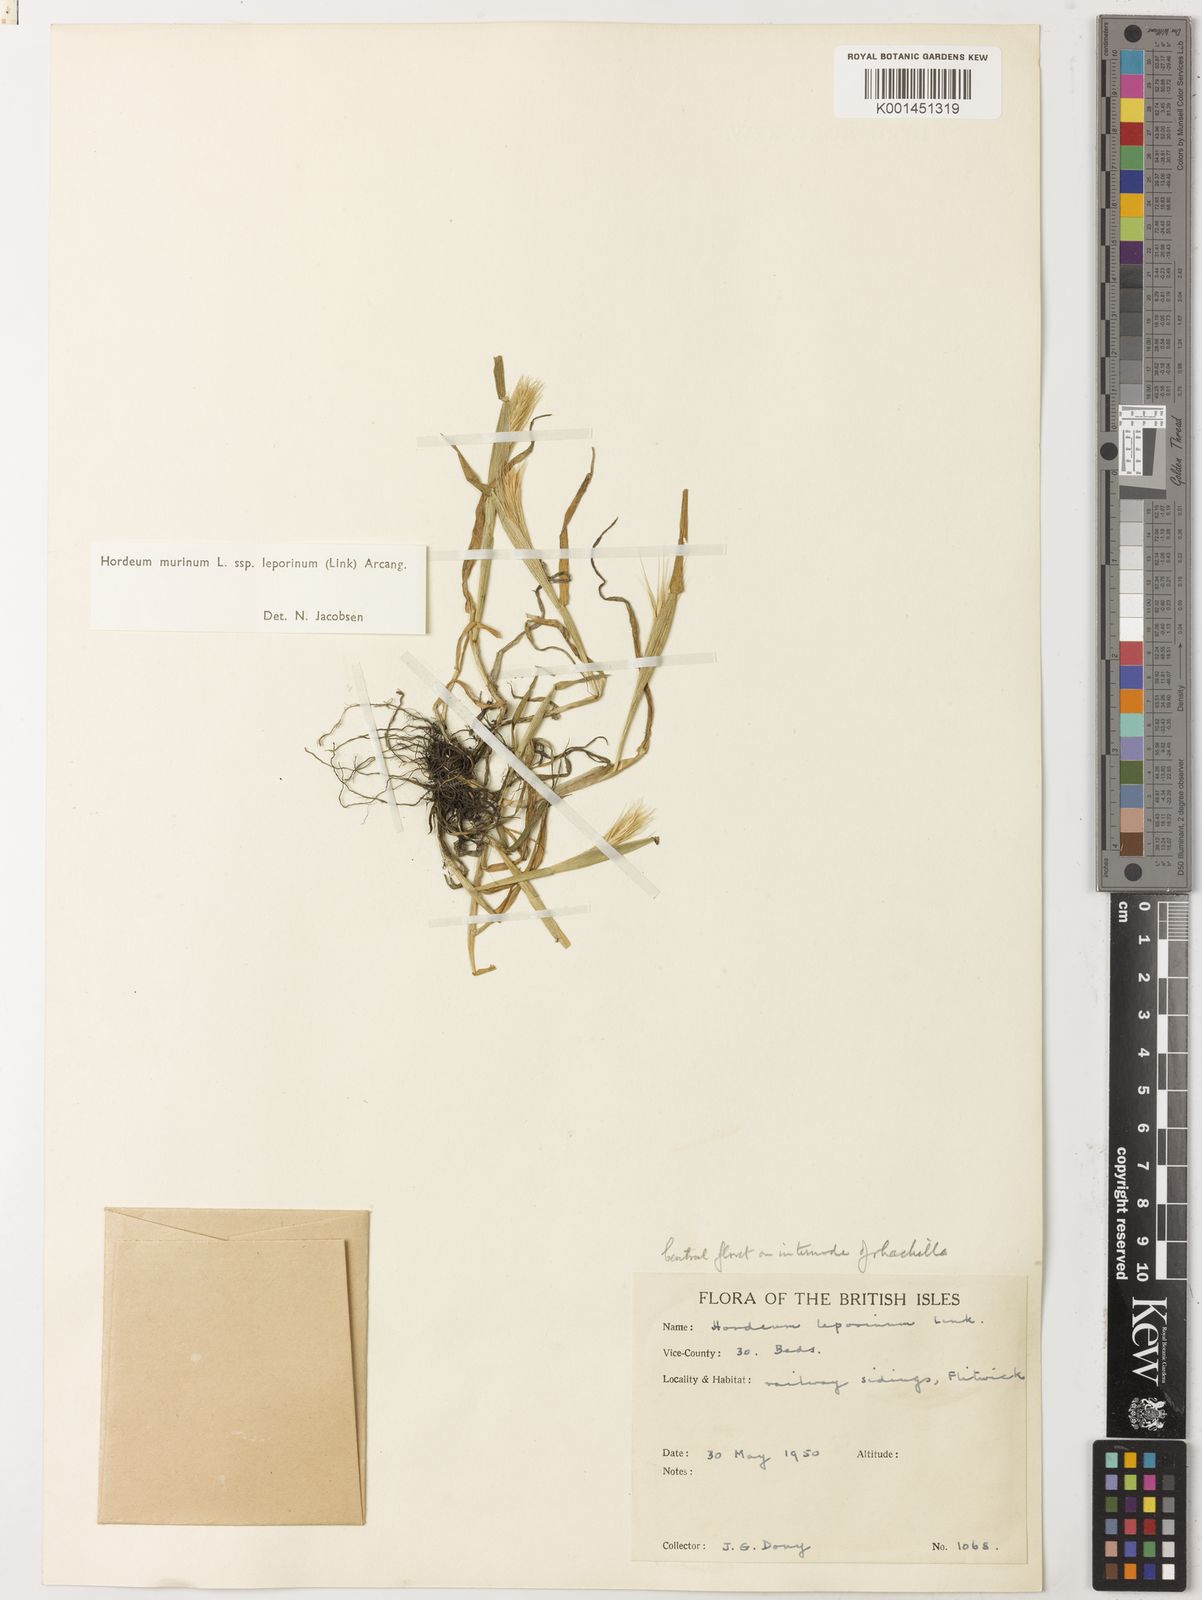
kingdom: Plantae
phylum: Tracheophyta
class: Liliopsida
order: Poales
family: Poaceae
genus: Hordeum
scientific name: Hordeum murinum
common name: Wall barley
